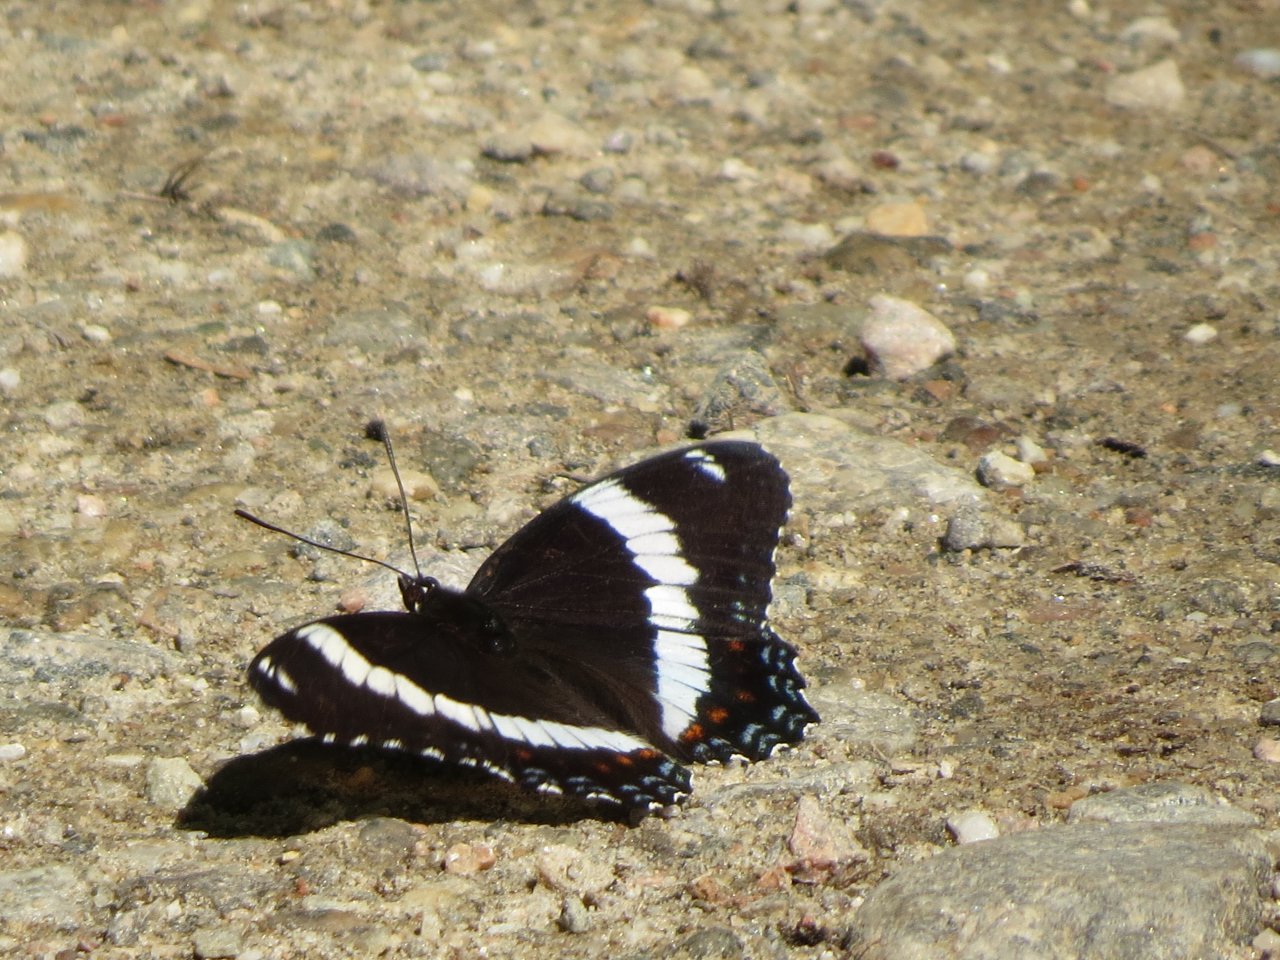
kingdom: Animalia
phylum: Arthropoda
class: Insecta
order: Lepidoptera
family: Nymphalidae
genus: Limenitis
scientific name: Limenitis arthemis
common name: Red-spotted Admiral
